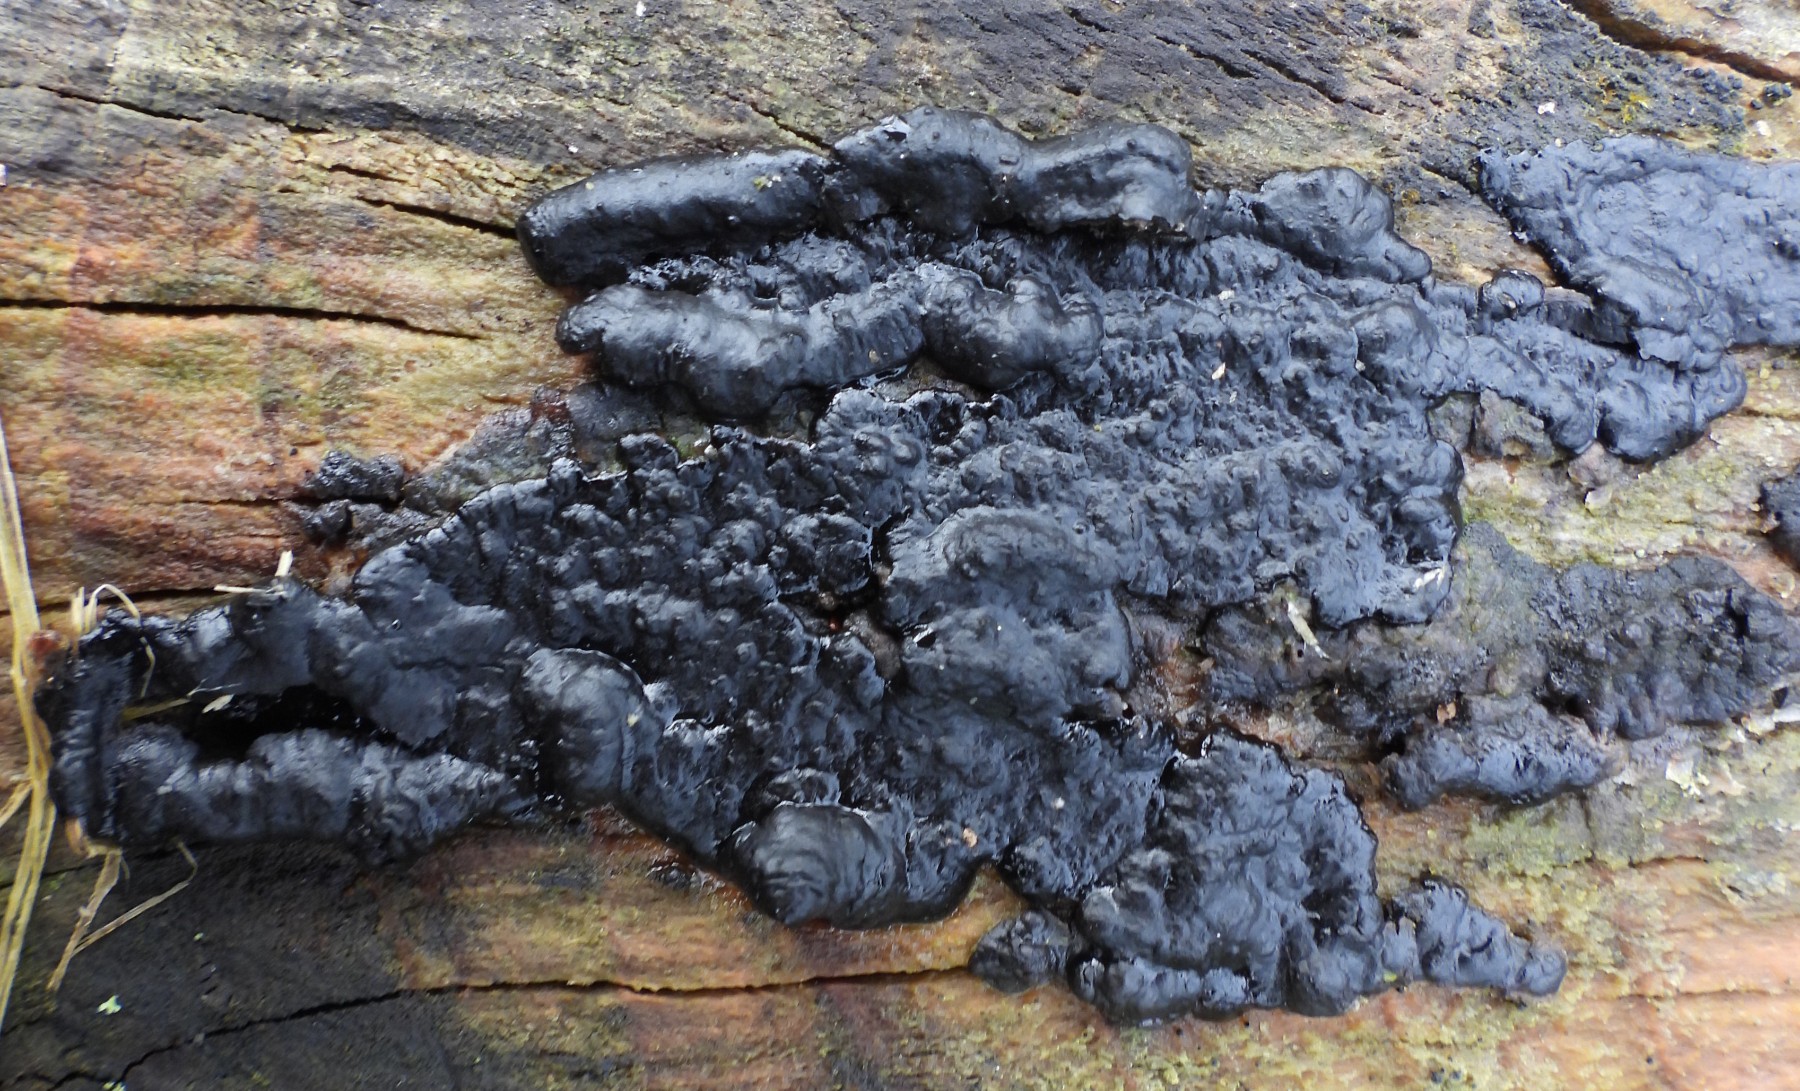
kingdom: Fungi
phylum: Basidiomycota
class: Agaricomycetes
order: Auriculariales
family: Auriculariaceae
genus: Exidia
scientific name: Exidia pithya
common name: gran-bævretop
